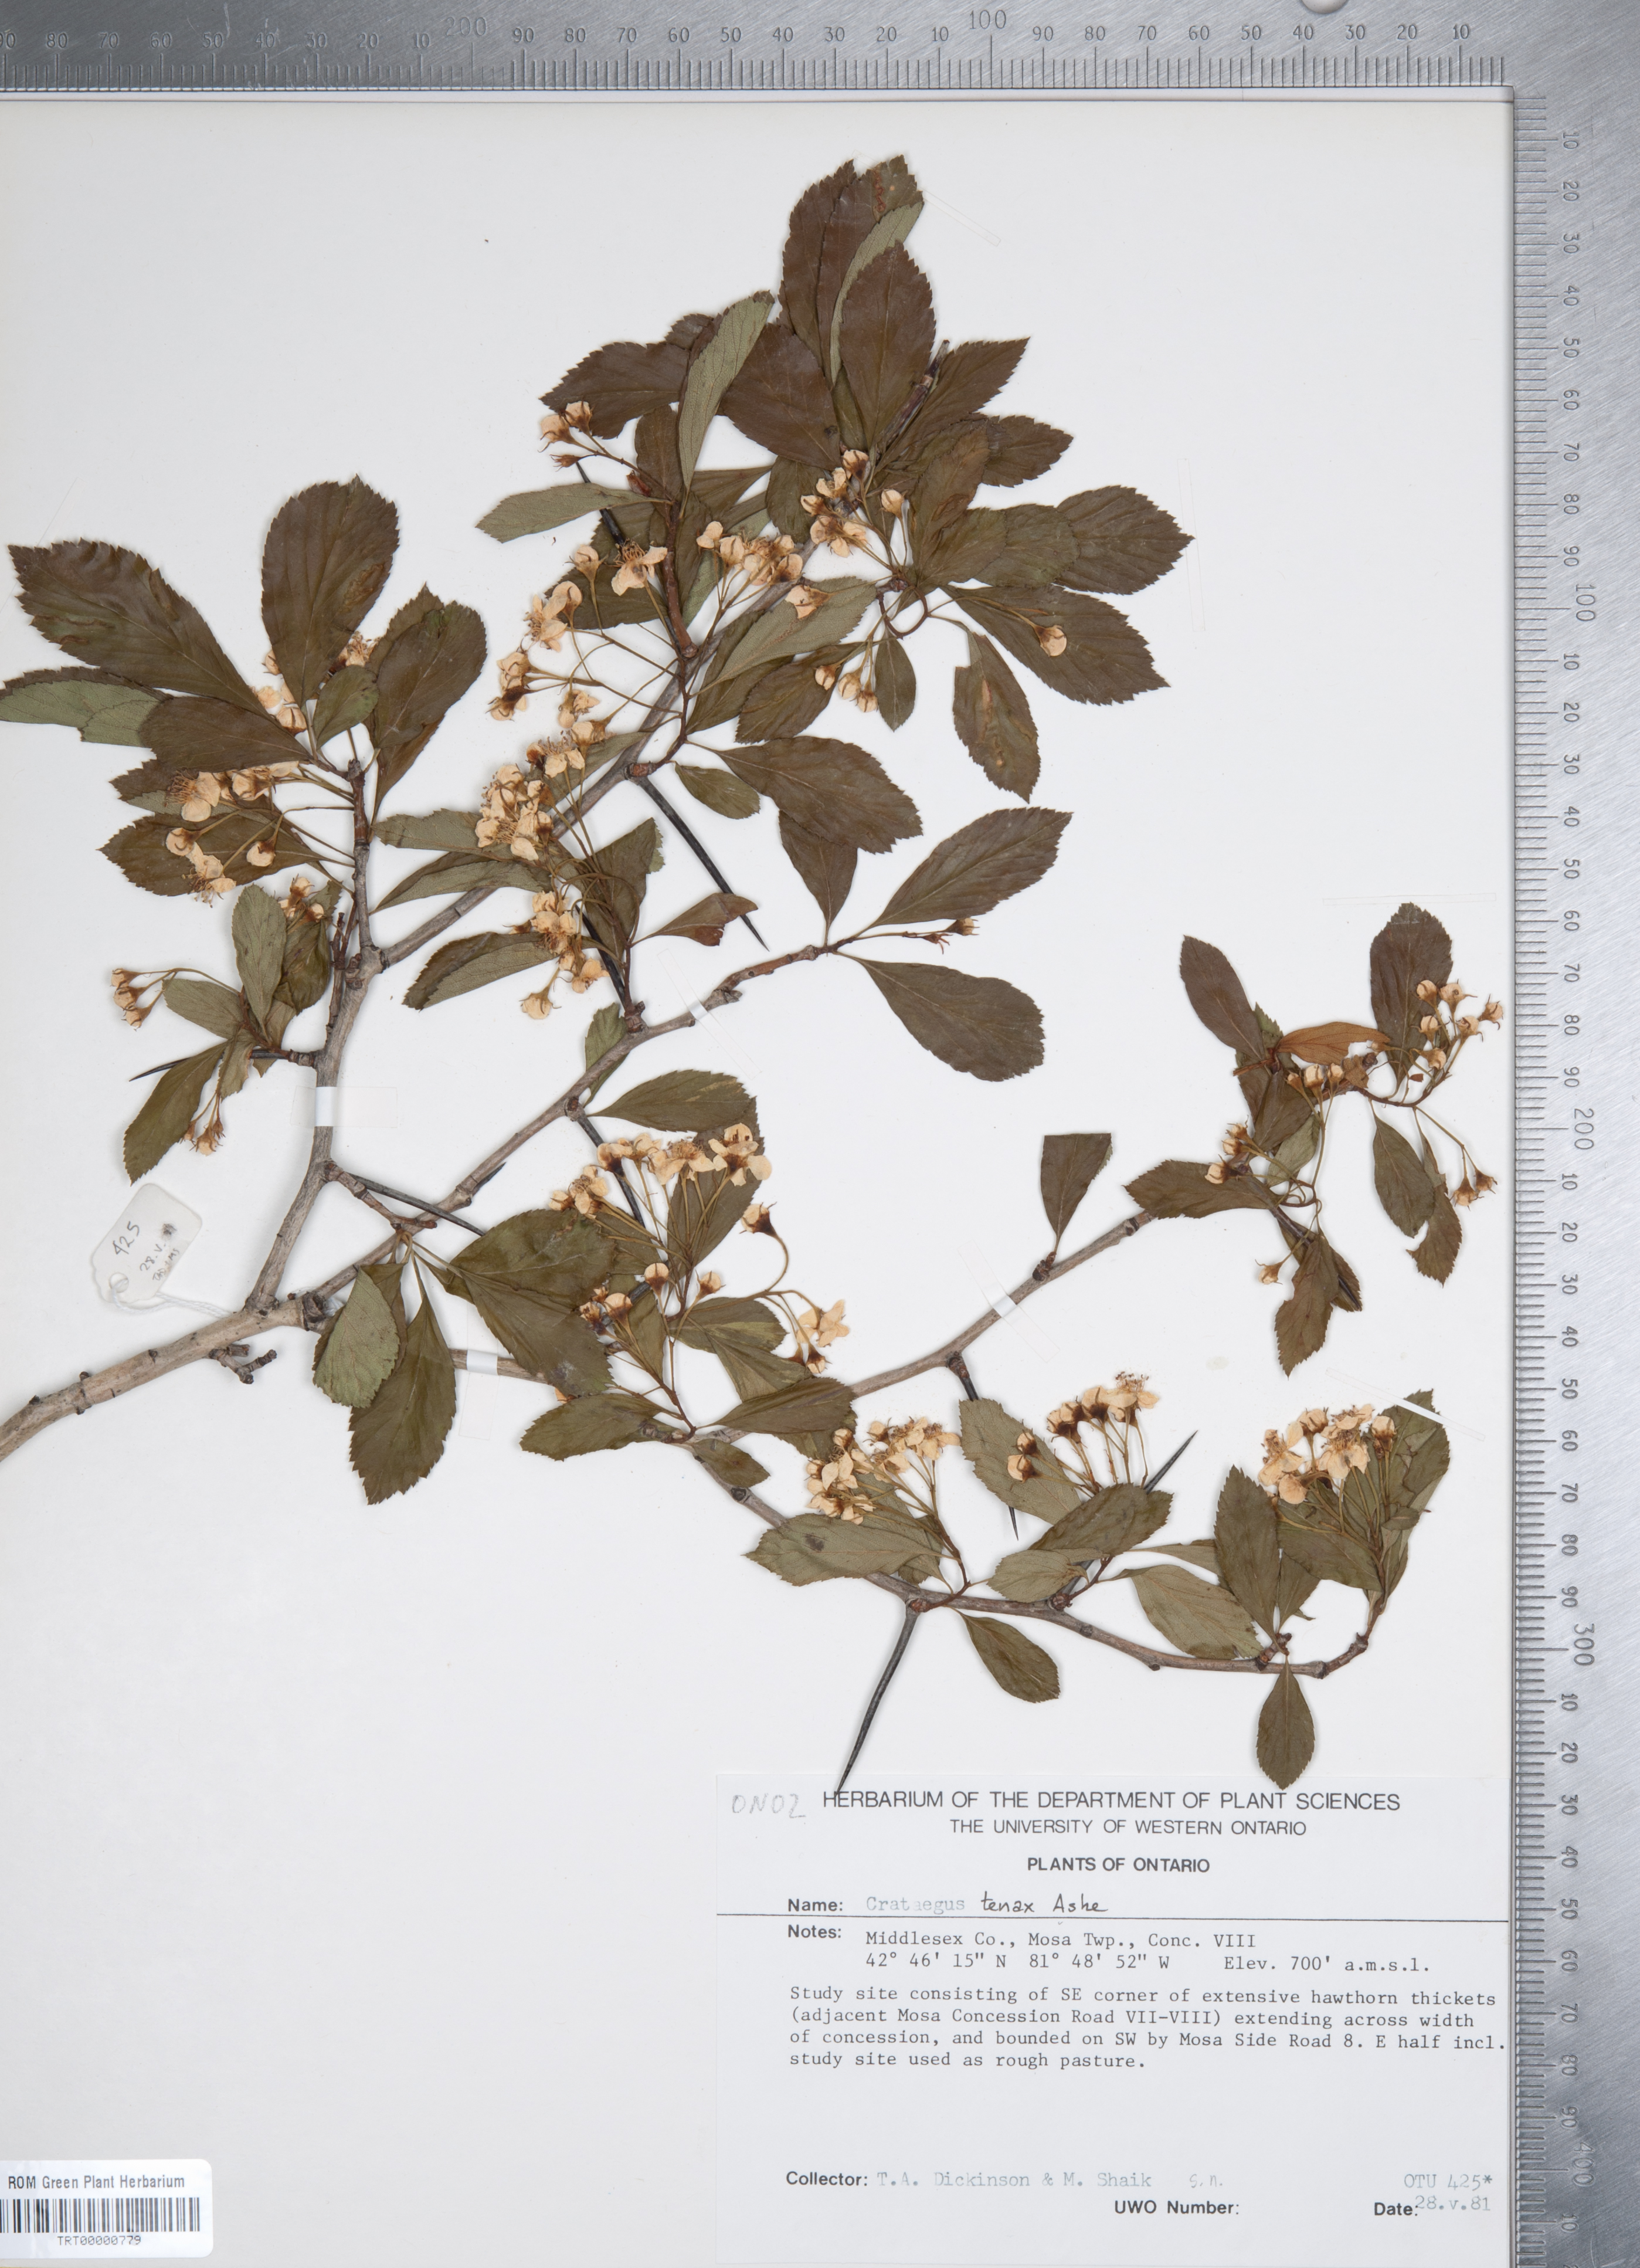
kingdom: Plantae
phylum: Tracheophyta
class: Magnoliopsida
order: Rosales
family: Rosaceae
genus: Crataegus
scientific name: Crataegus crus-galli
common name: Cockspurthorn
